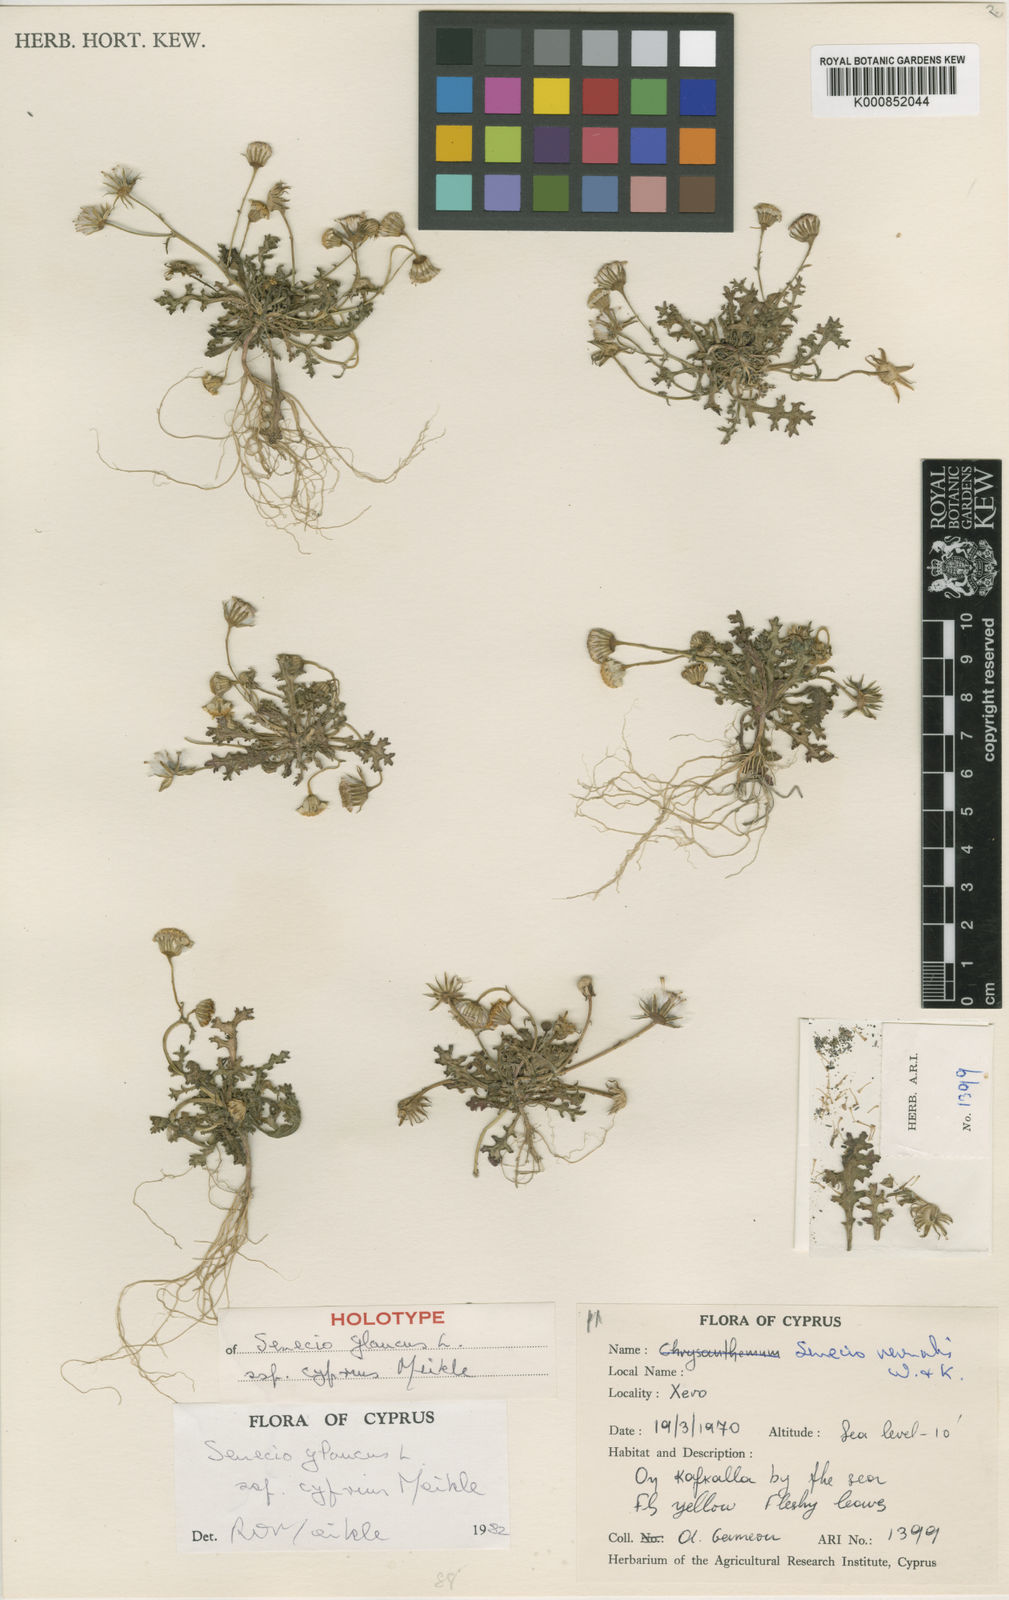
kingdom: Plantae
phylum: Tracheophyta
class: Magnoliopsida
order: Asterales
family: Asteraceae
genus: Senecio
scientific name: Senecio glaucus
